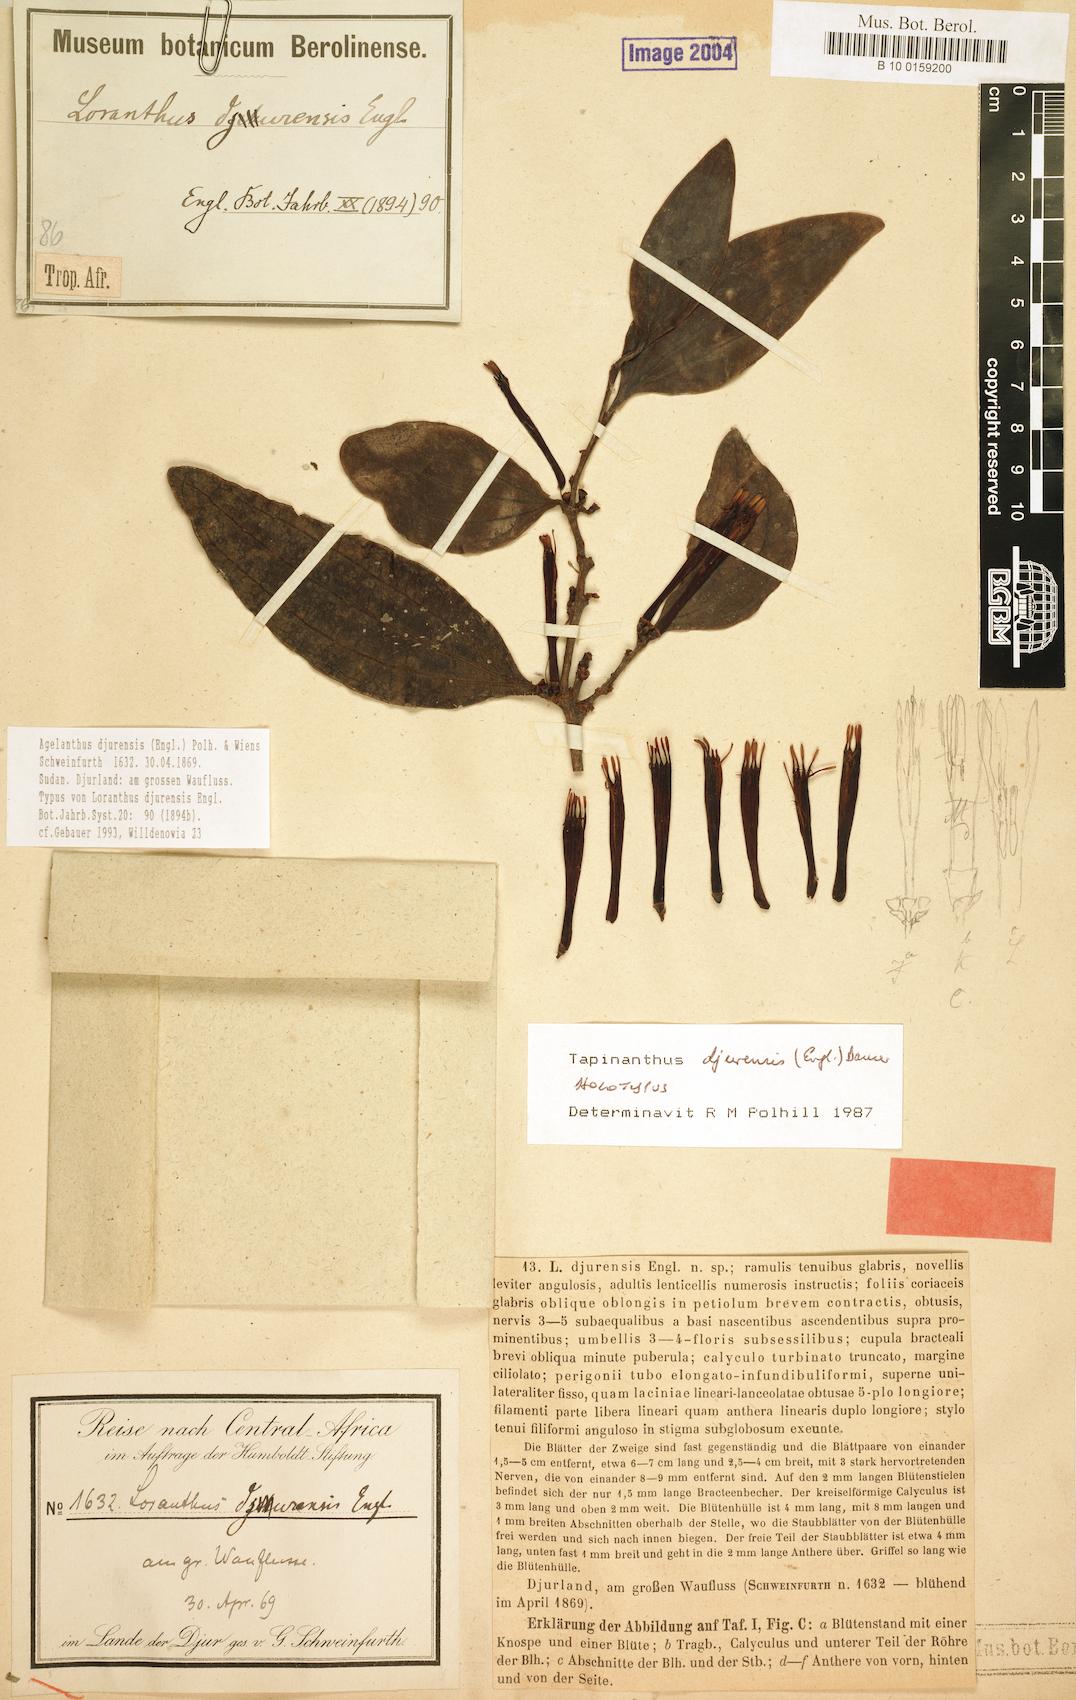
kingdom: Plantae
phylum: Tracheophyta
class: Magnoliopsida
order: Santalales
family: Loranthaceae
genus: Agelanthus
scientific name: Agelanthus djurensis
